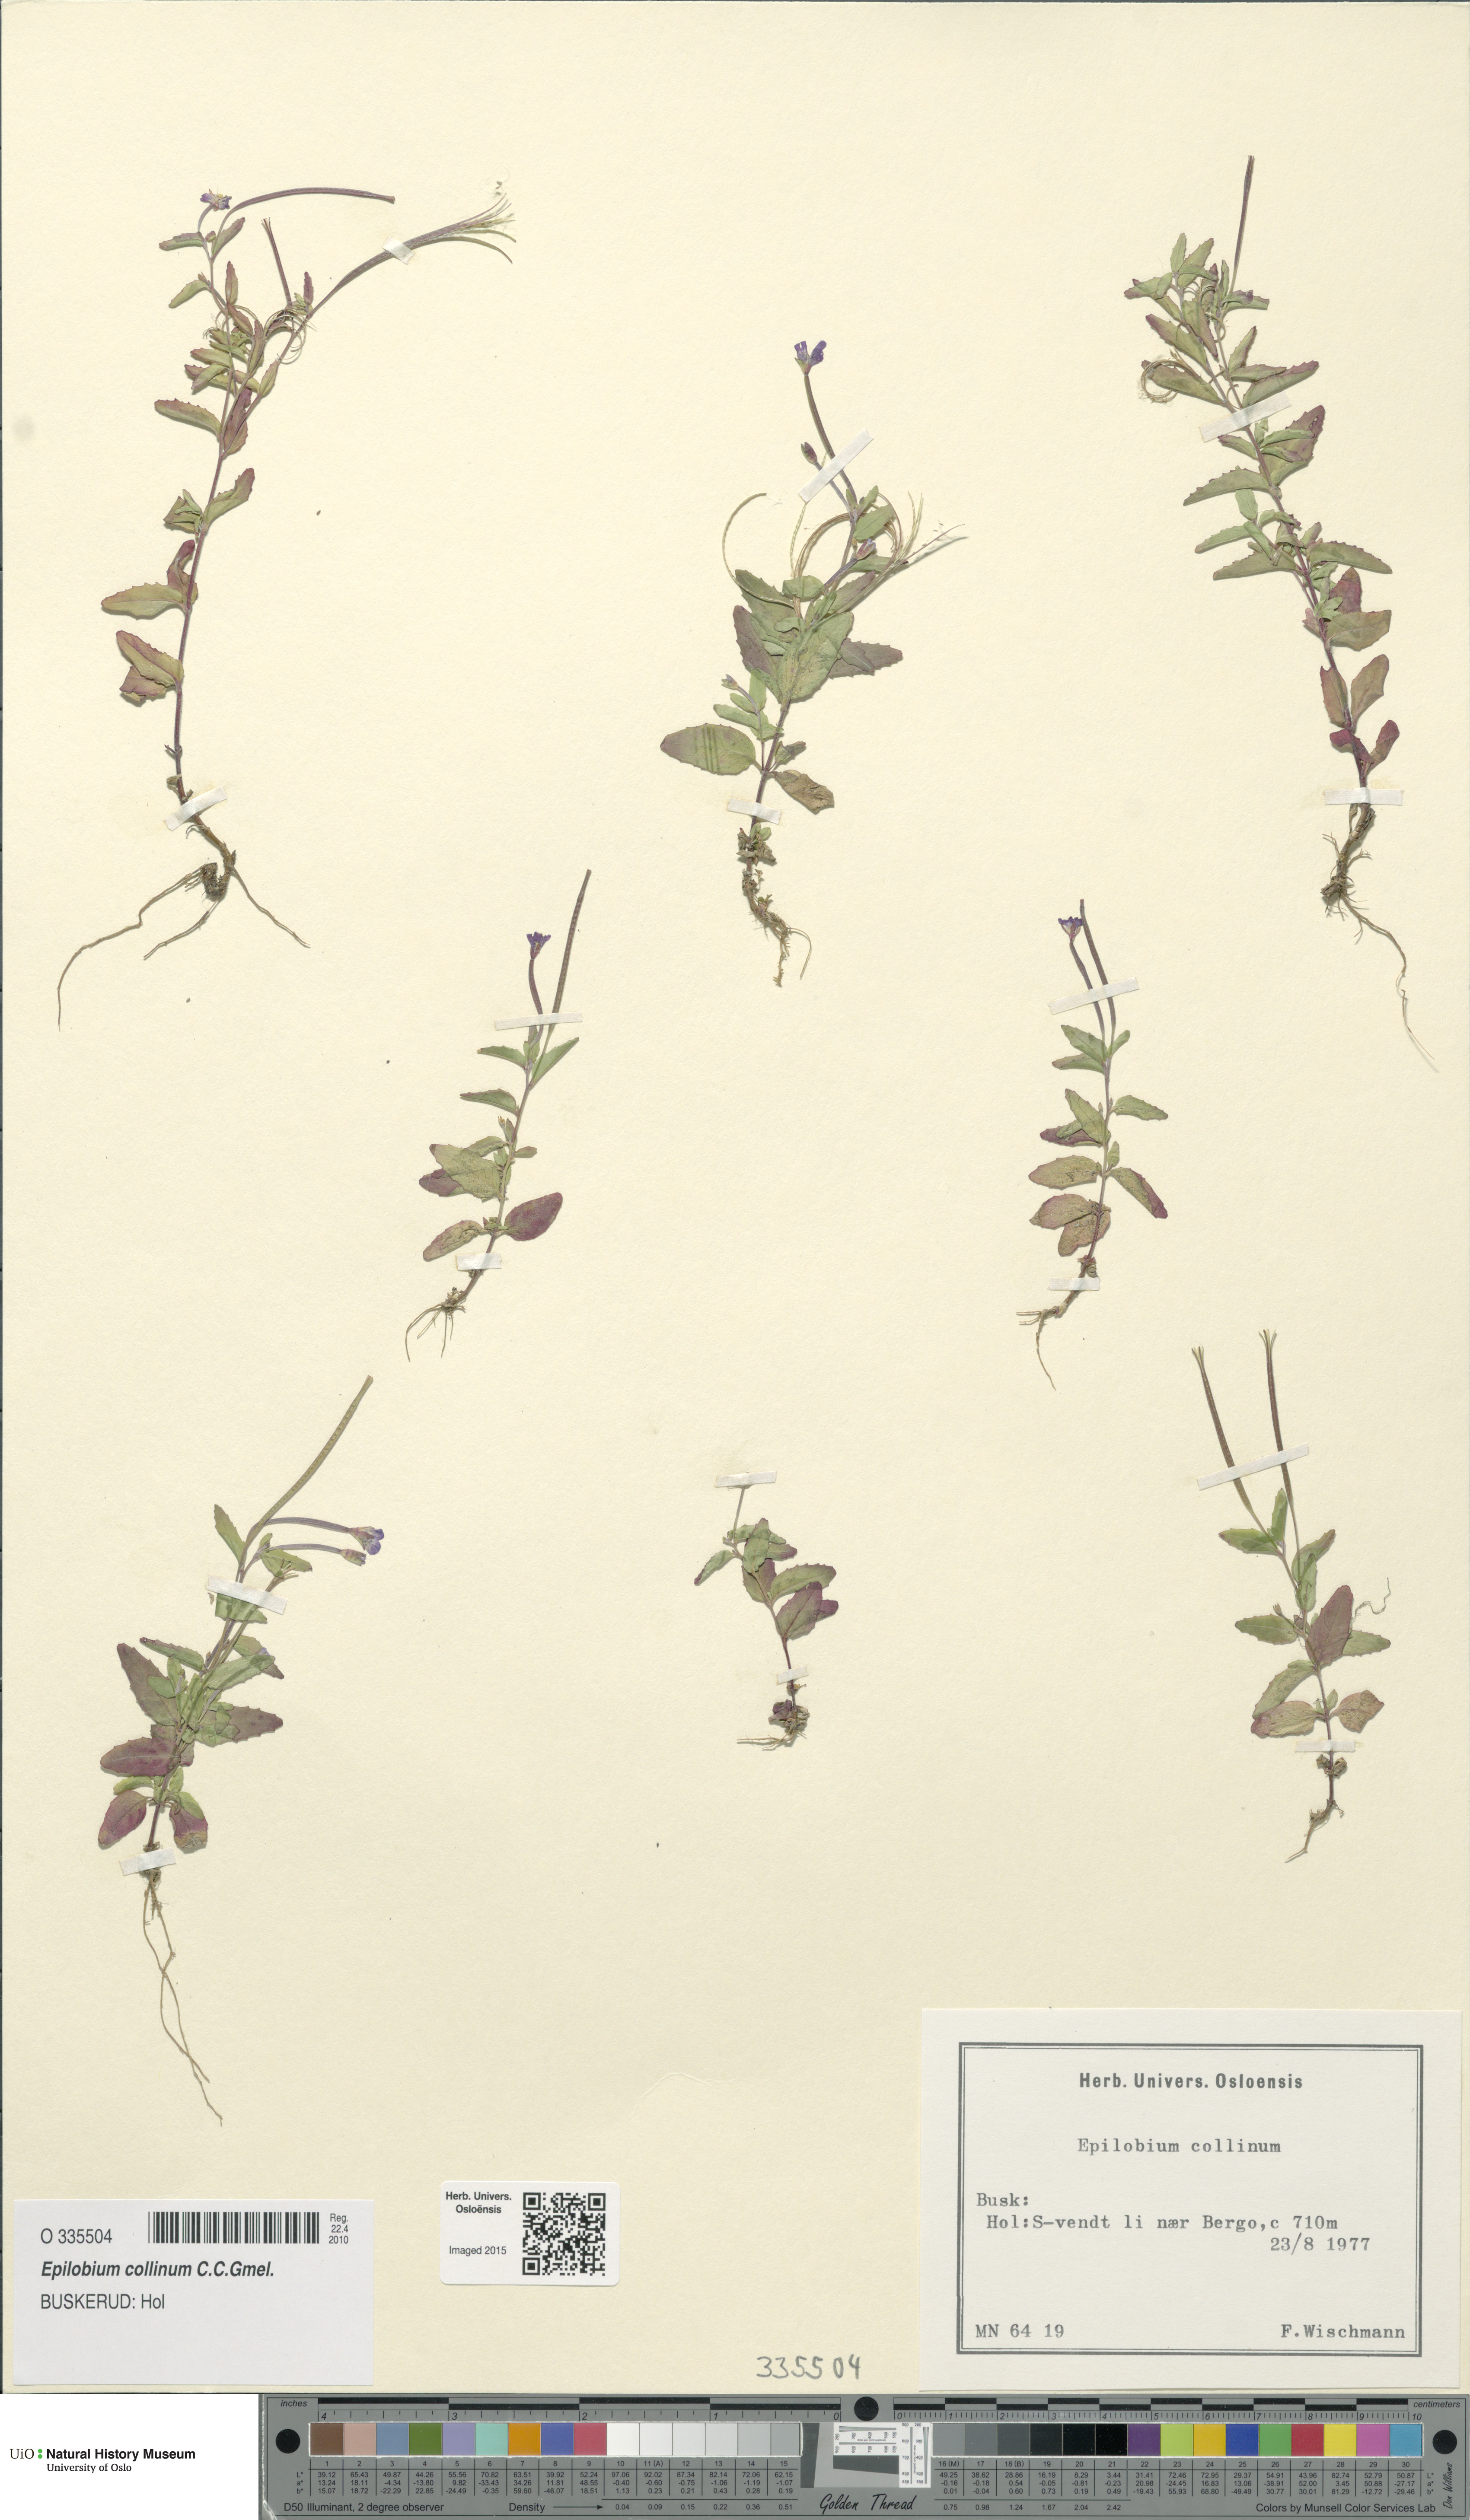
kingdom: Plantae
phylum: Tracheophyta
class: Magnoliopsida
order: Myrtales
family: Onagraceae
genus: Epilobium
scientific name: Epilobium collinum
